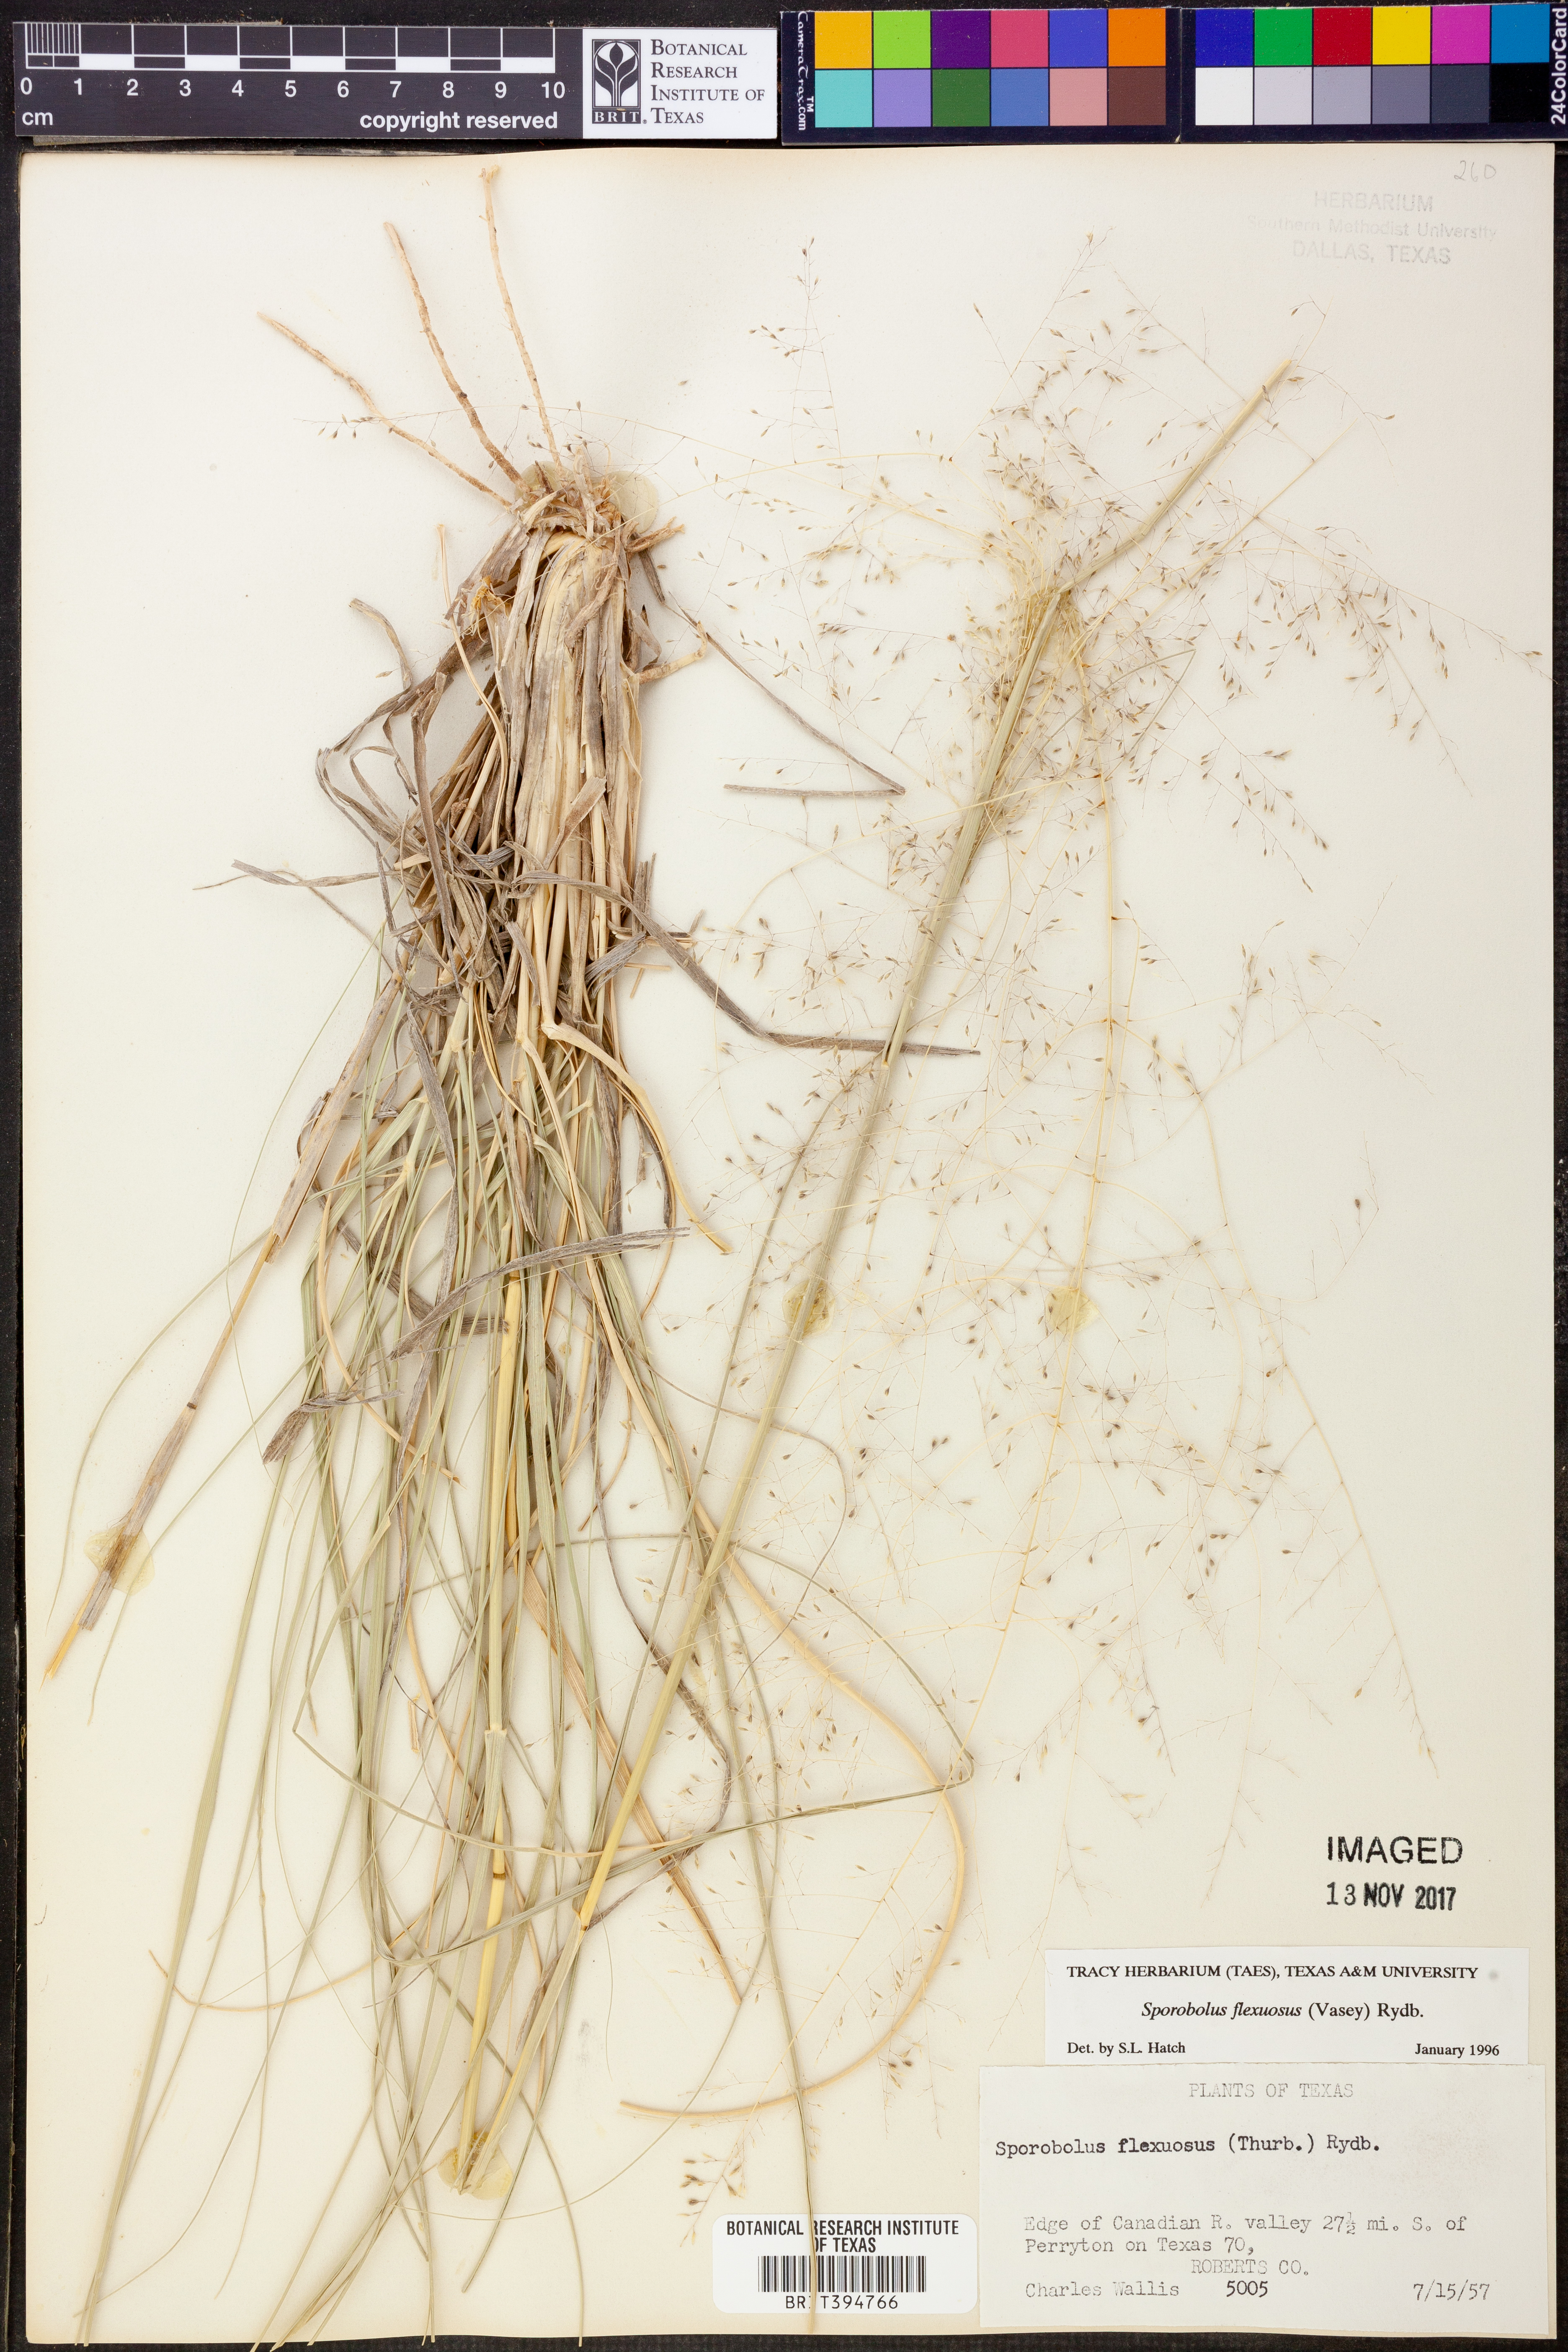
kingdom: Plantae
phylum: Tracheophyta
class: Liliopsida
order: Poales
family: Poaceae
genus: Sporobolus
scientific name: Sporobolus flexuosus
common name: Mesa dropseed
